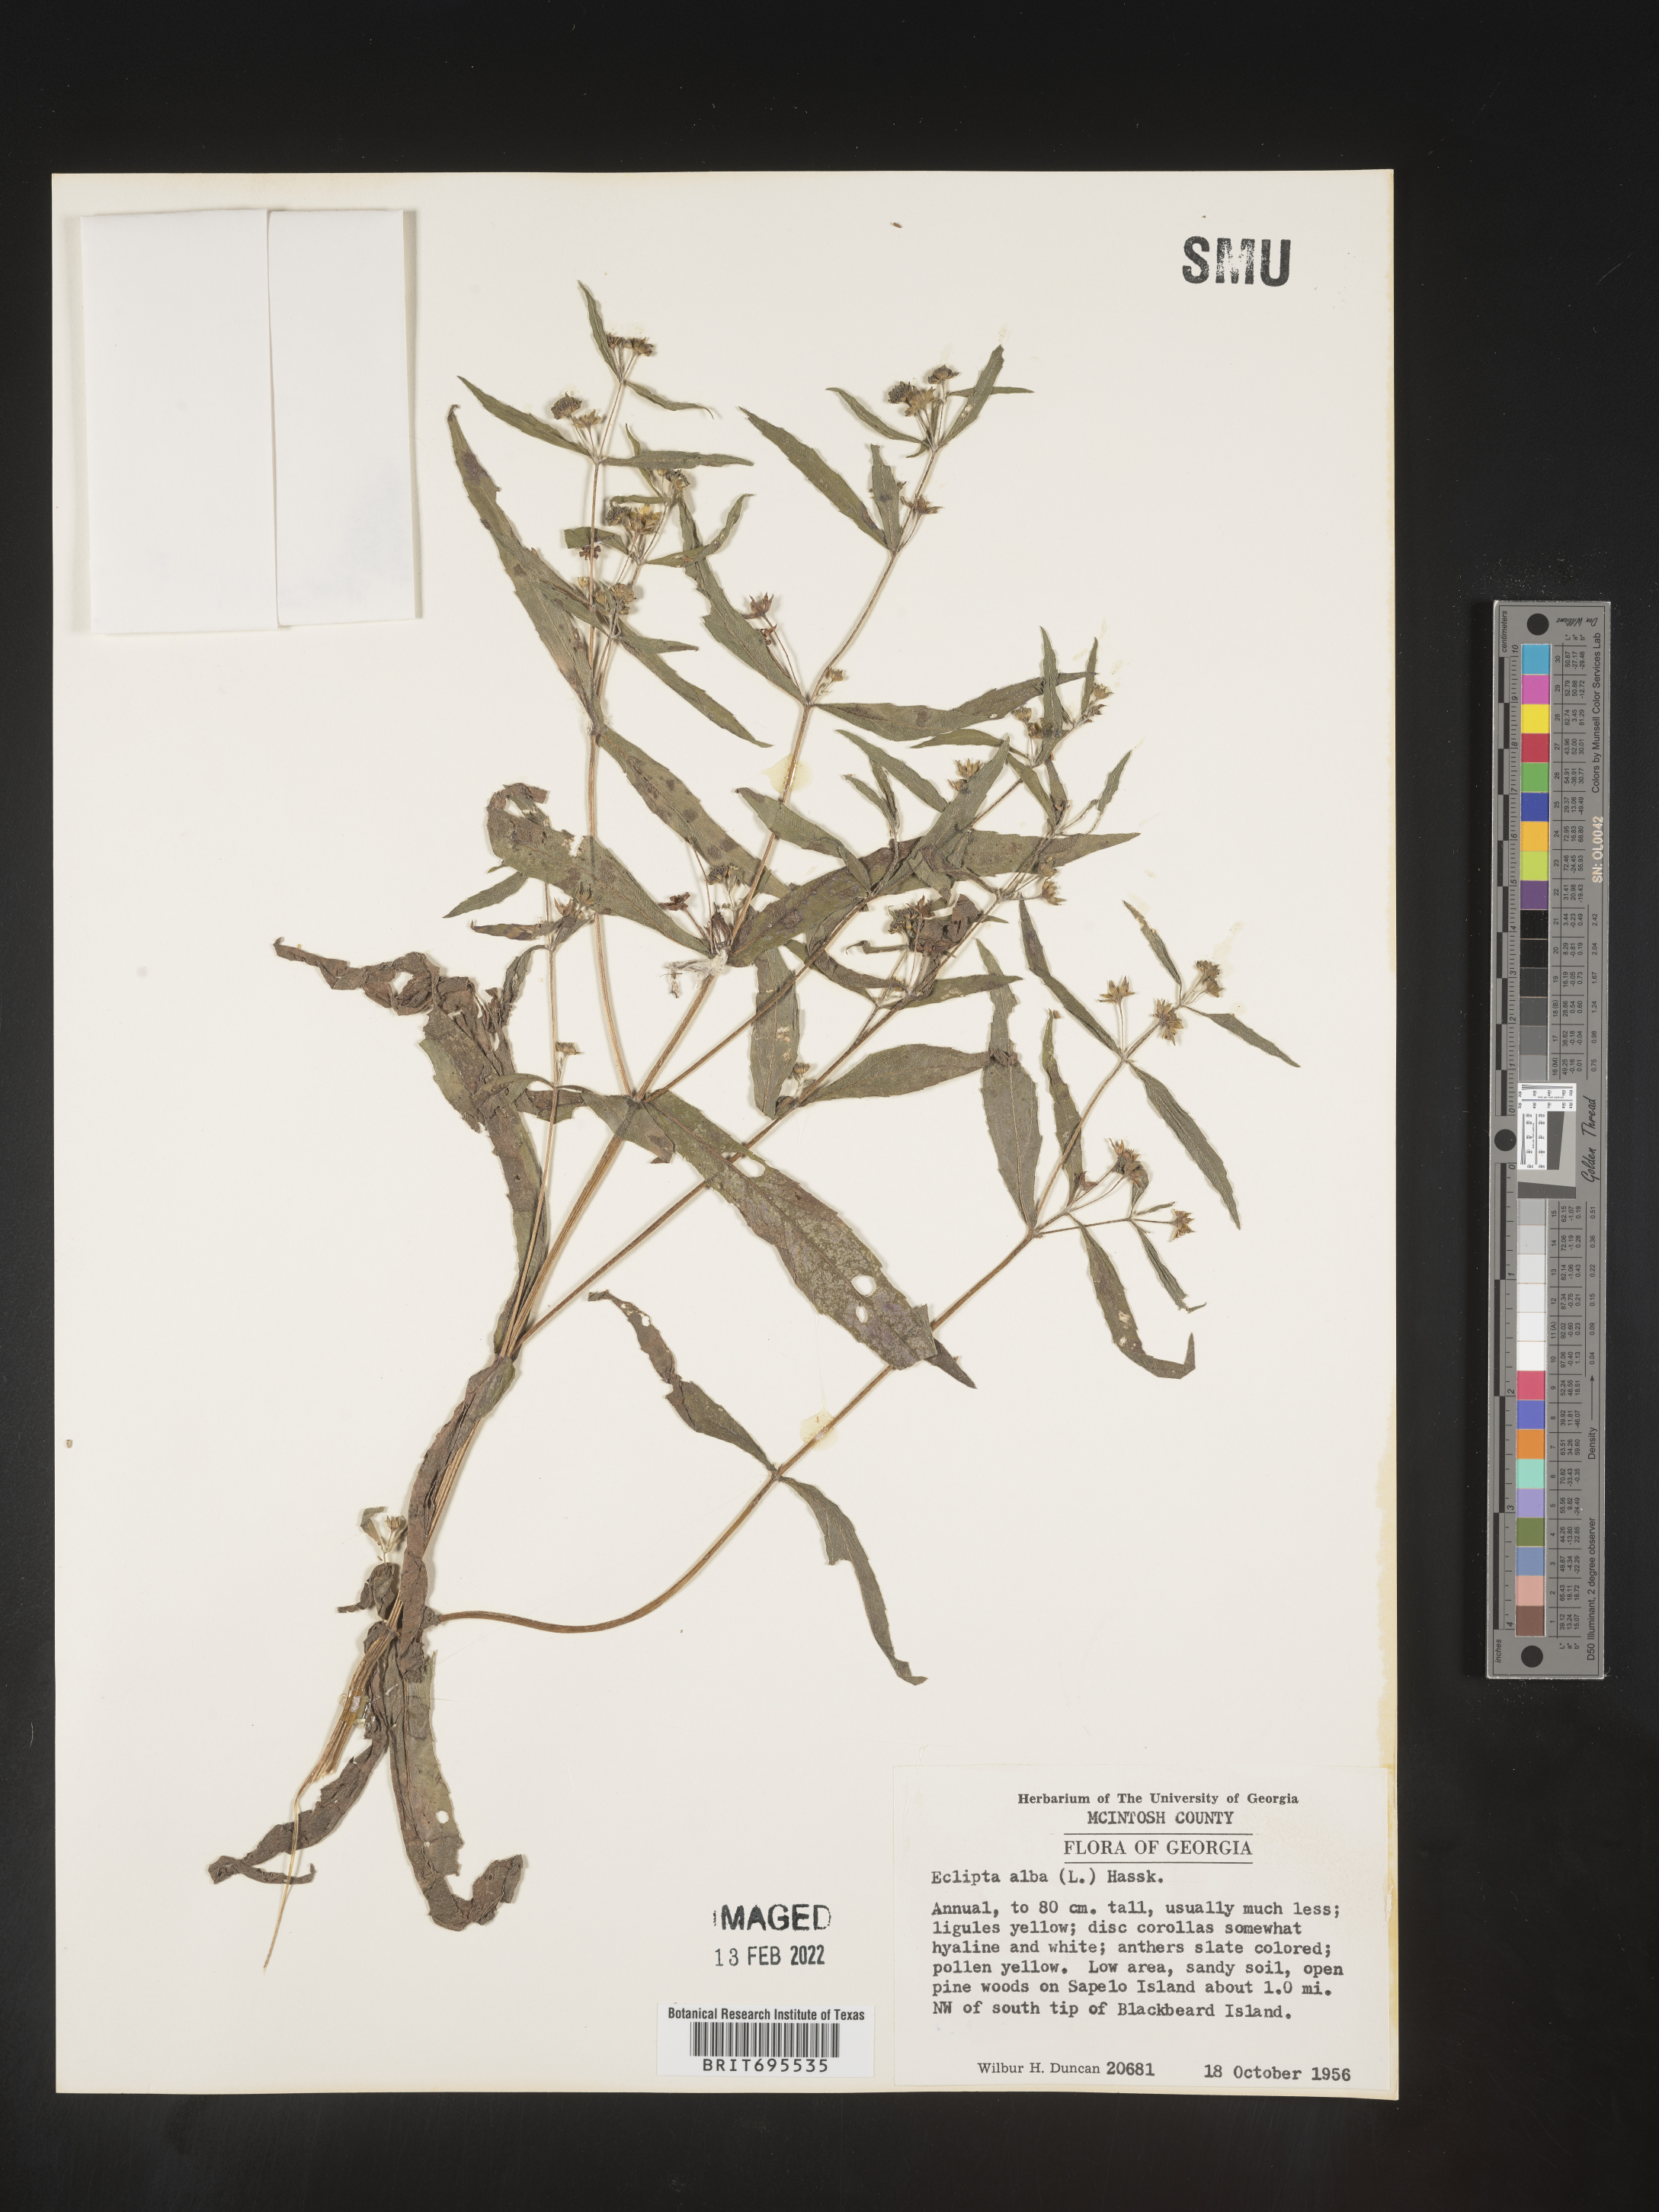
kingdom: Plantae
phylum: Tracheophyta
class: Magnoliopsida
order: Asterales
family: Asteraceae
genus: Eclipta
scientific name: Eclipta alba
